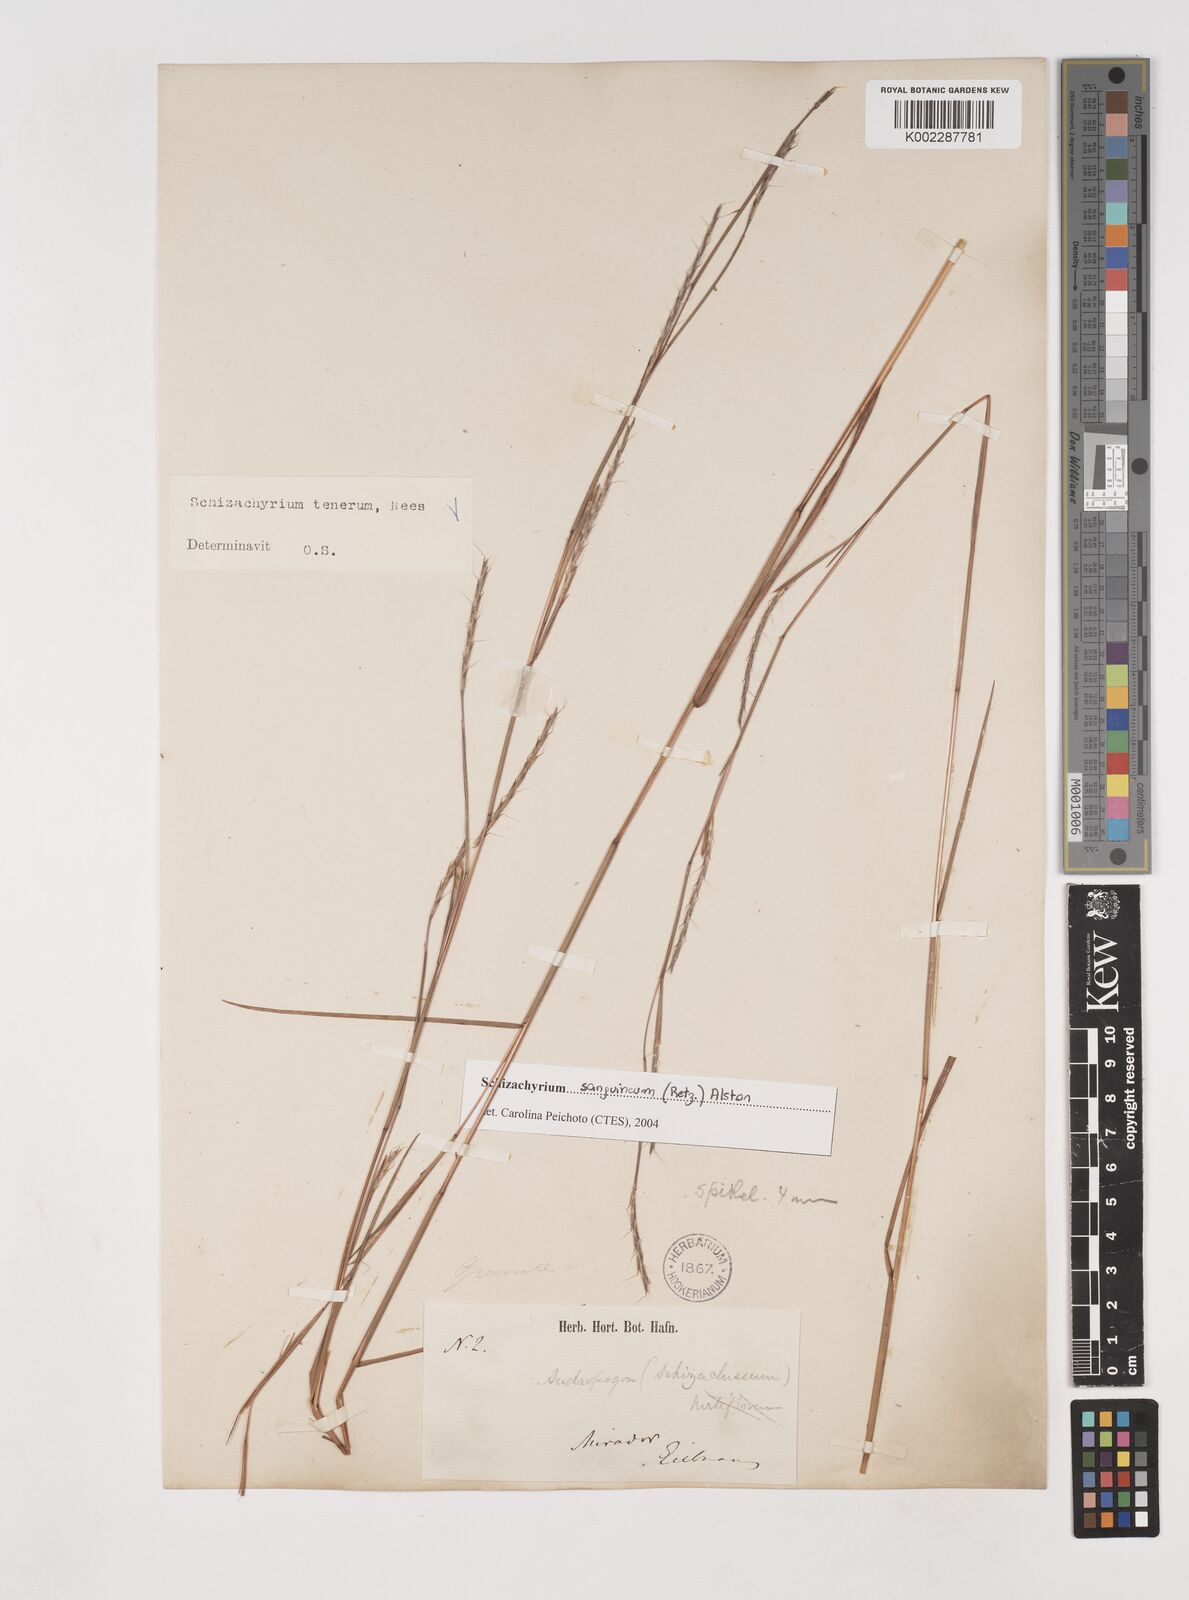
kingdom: Plantae
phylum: Tracheophyta
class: Liliopsida
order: Poales
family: Poaceae
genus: Andropogon
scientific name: Andropogon tener
